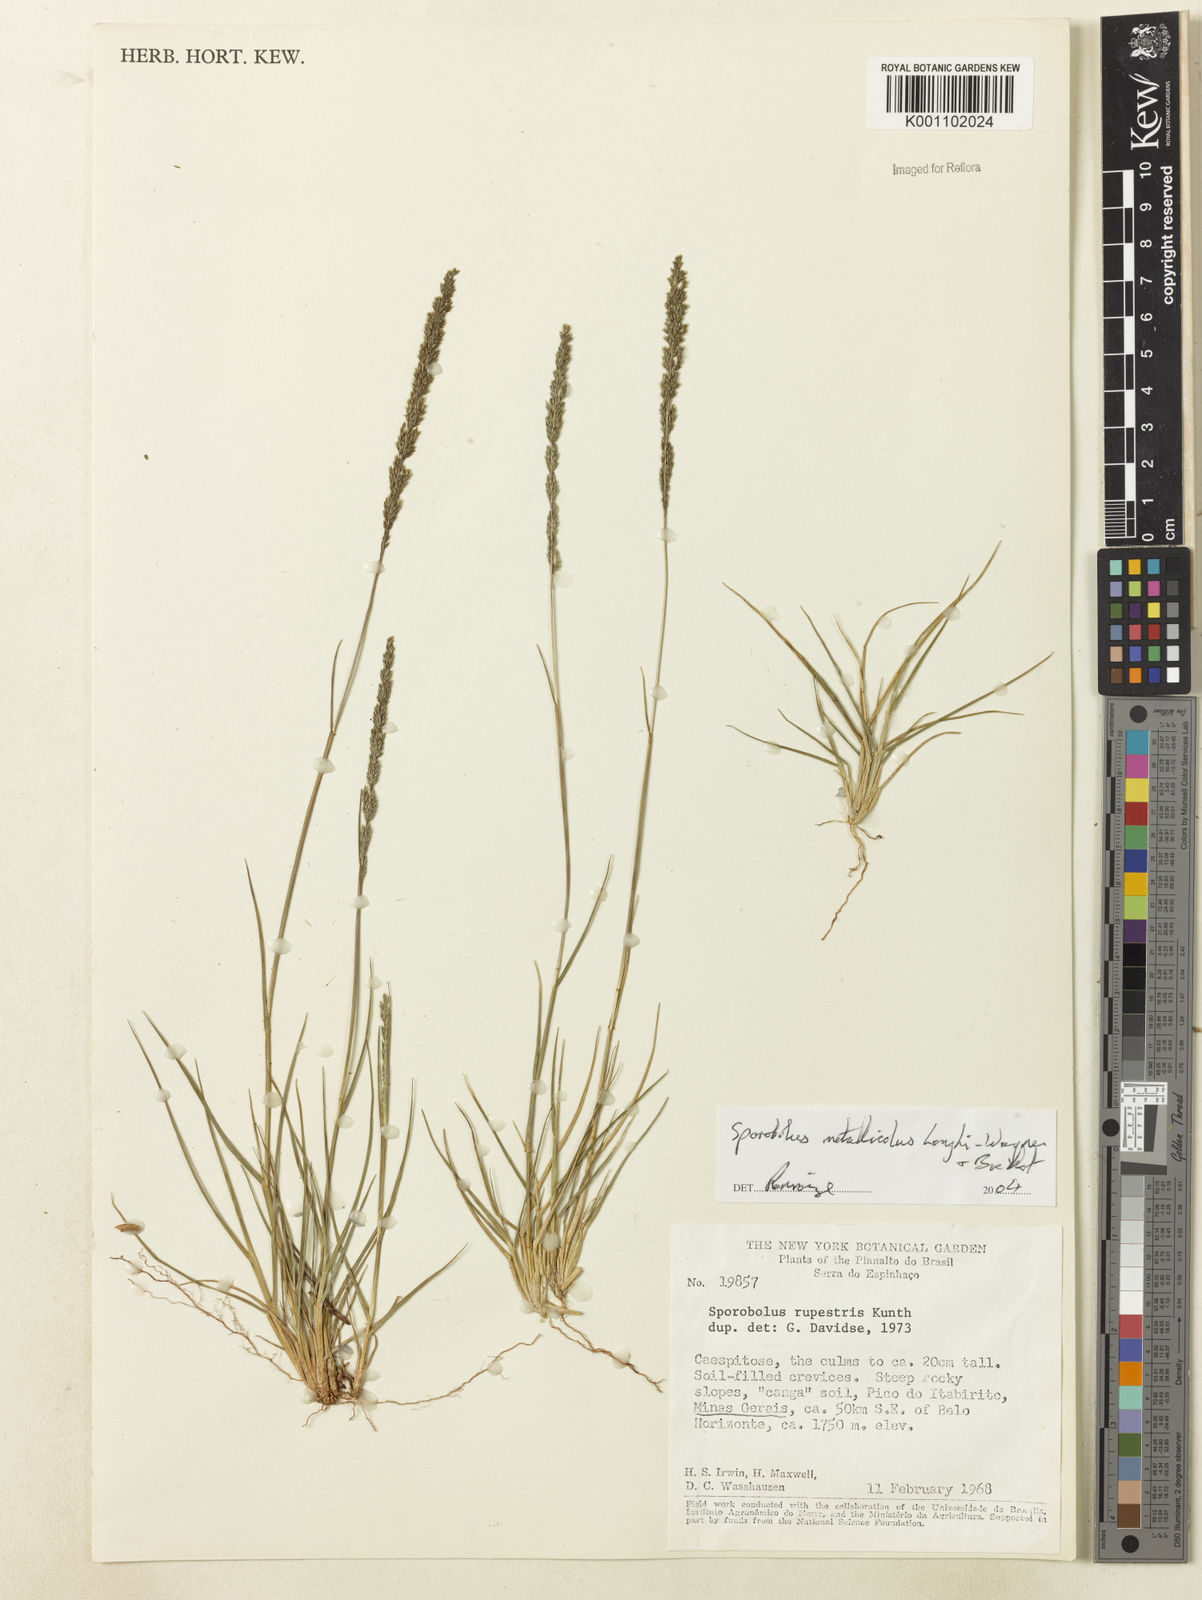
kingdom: Plantae
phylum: Tracheophyta
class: Liliopsida
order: Poales
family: Poaceae
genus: Sporobolus
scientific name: Sporobolus metallicola
